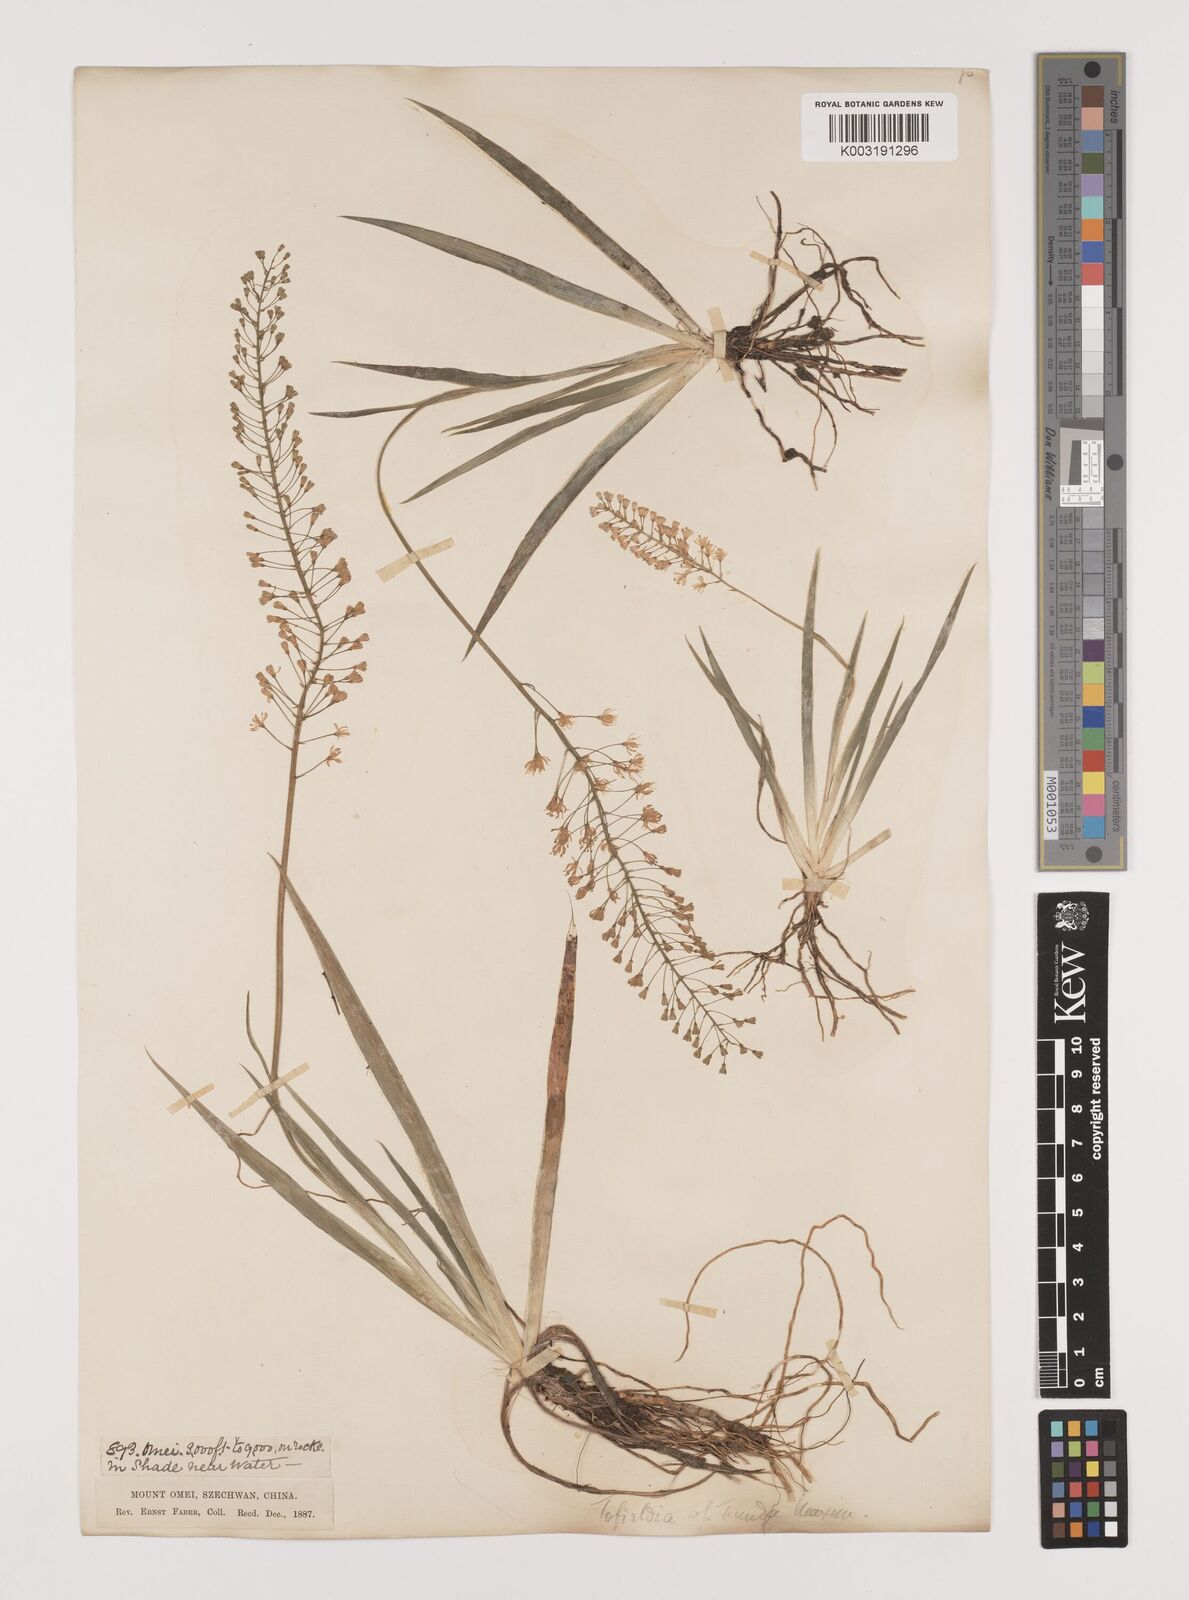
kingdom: Plantae
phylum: Tracheophyta
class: Liliopsida
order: Alismatales
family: Tofieldiaceae
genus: Tofieldia
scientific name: Tofieldia thibetica
